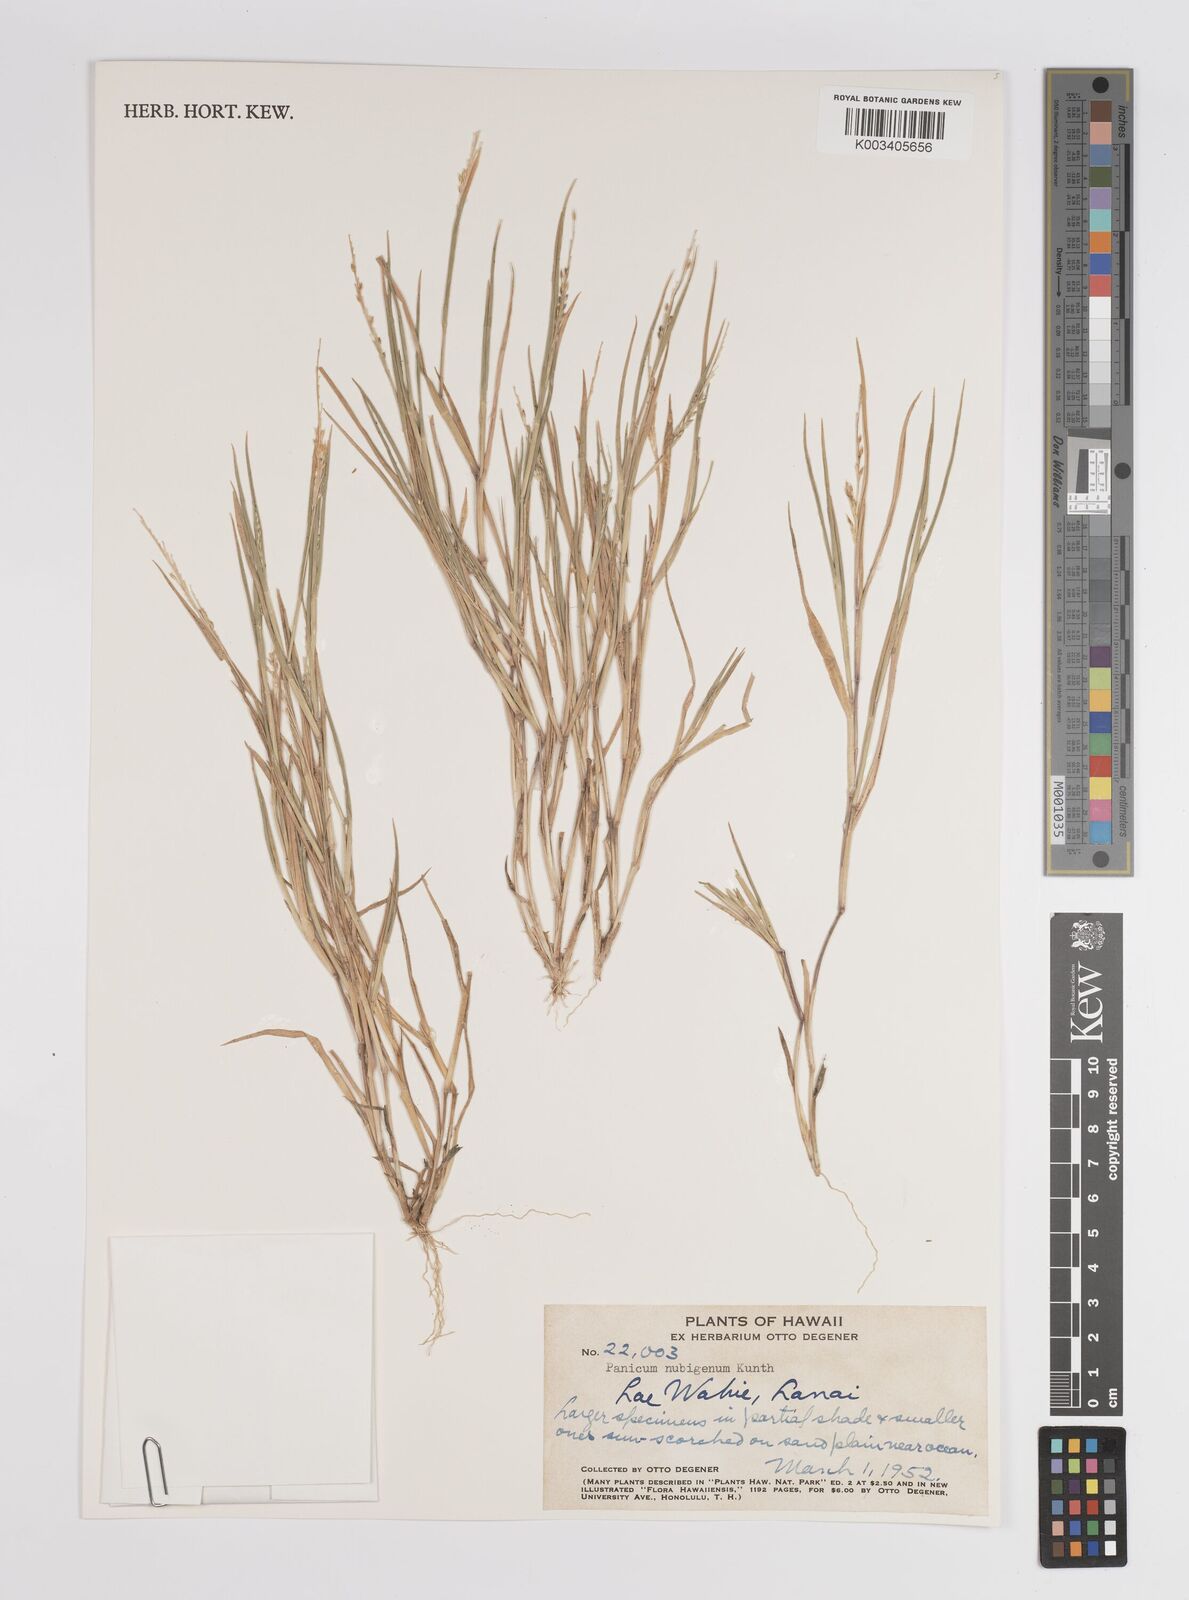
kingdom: Plantae
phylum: Tracheophyta
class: Liliopsida
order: Poales
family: Poaceae
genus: Panicum
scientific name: Panicum fauriei
